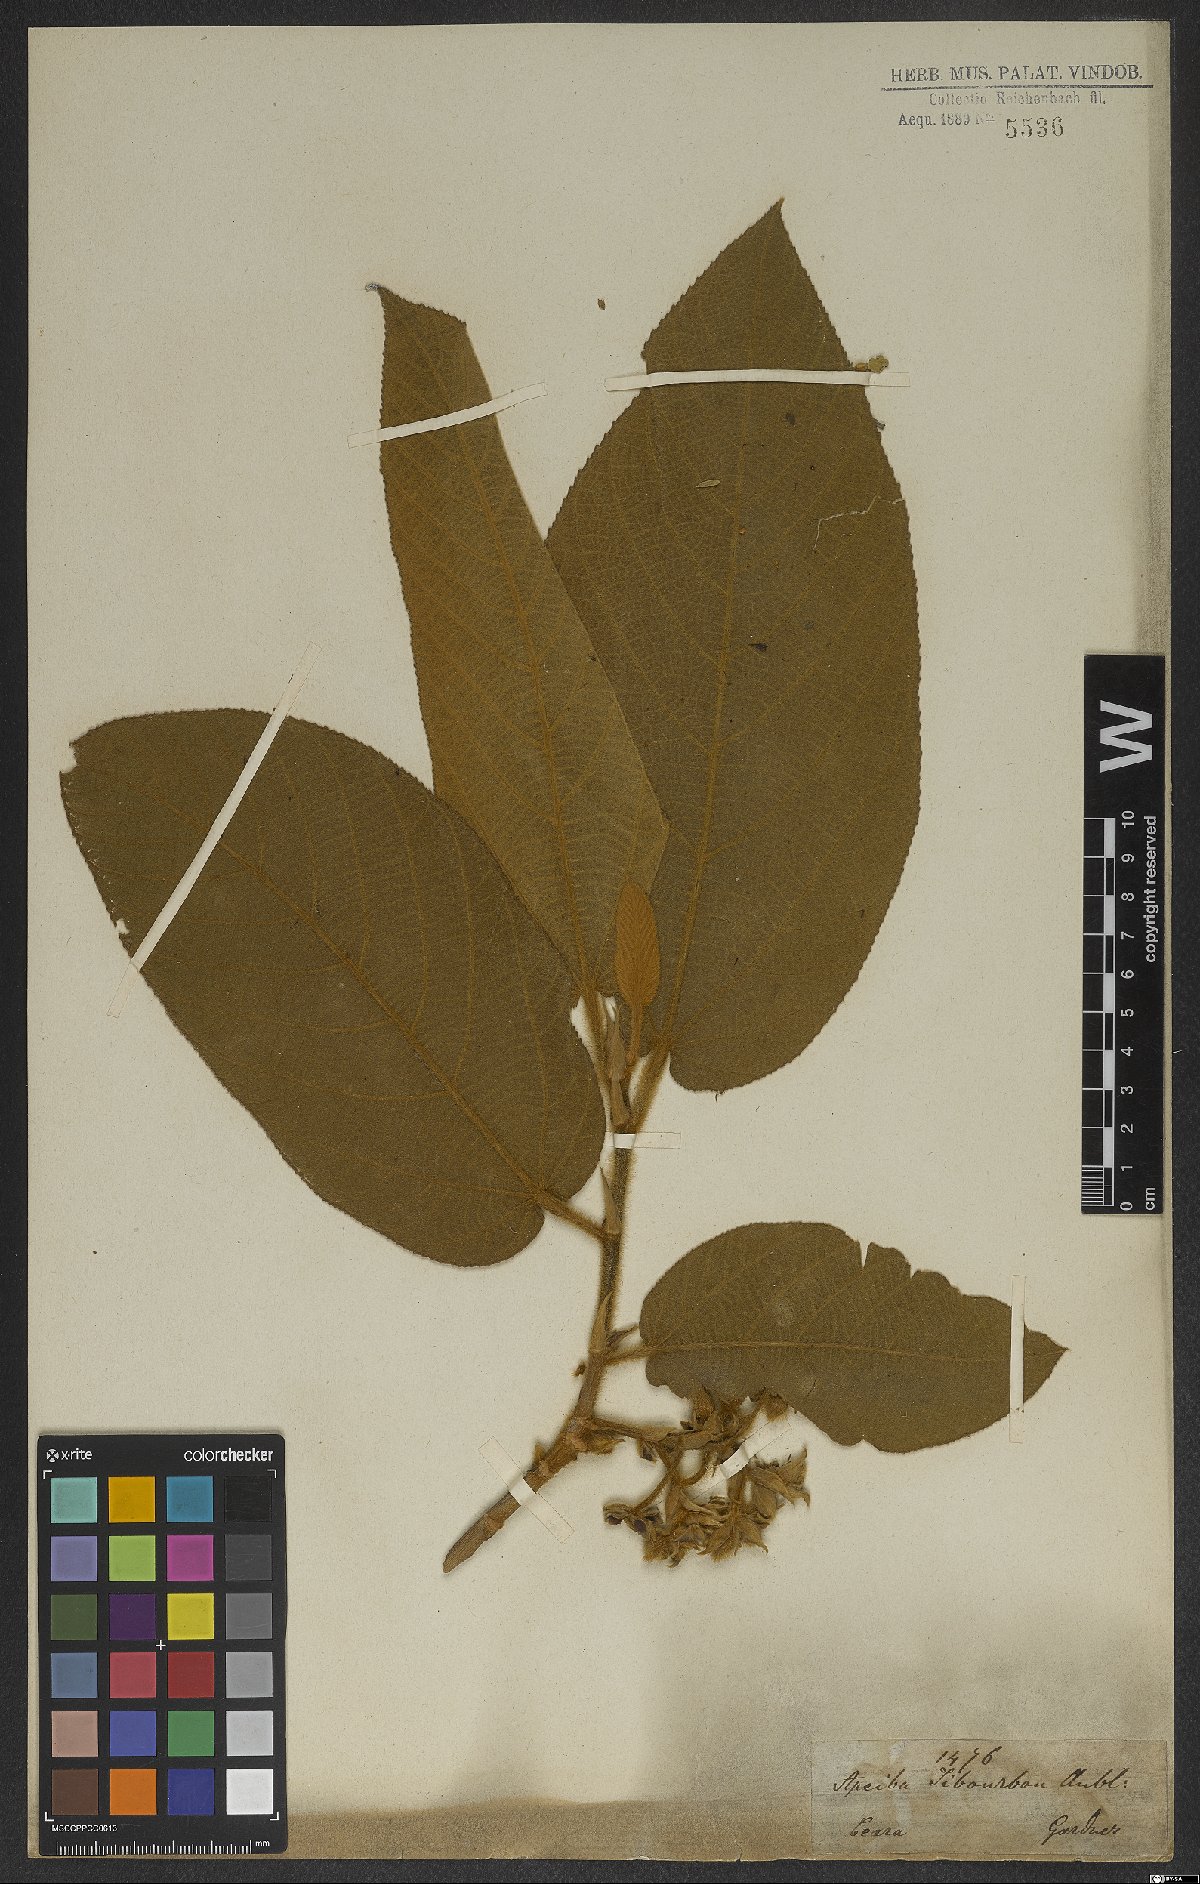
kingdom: Plantae
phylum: Tracheophyta
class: Magnoliopsida
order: Malvales
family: Malvaceae
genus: Apeiba
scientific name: Apeiba tibourbou
